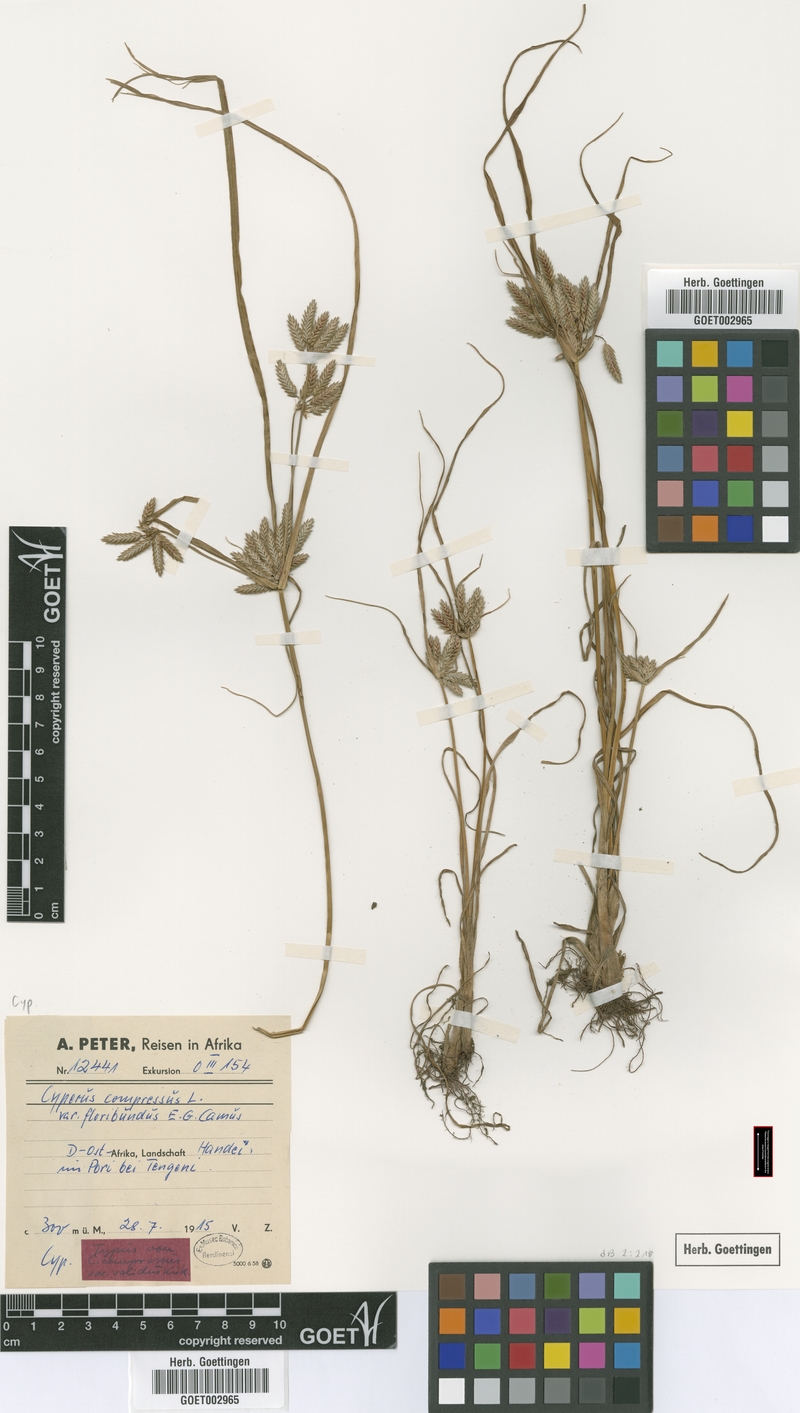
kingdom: Plantae
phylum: Tracheophyta
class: Liliopsida
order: Poales
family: Cyperaceae
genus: Cyperus
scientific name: Cyperus compressus
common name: Poorland flatsedge
